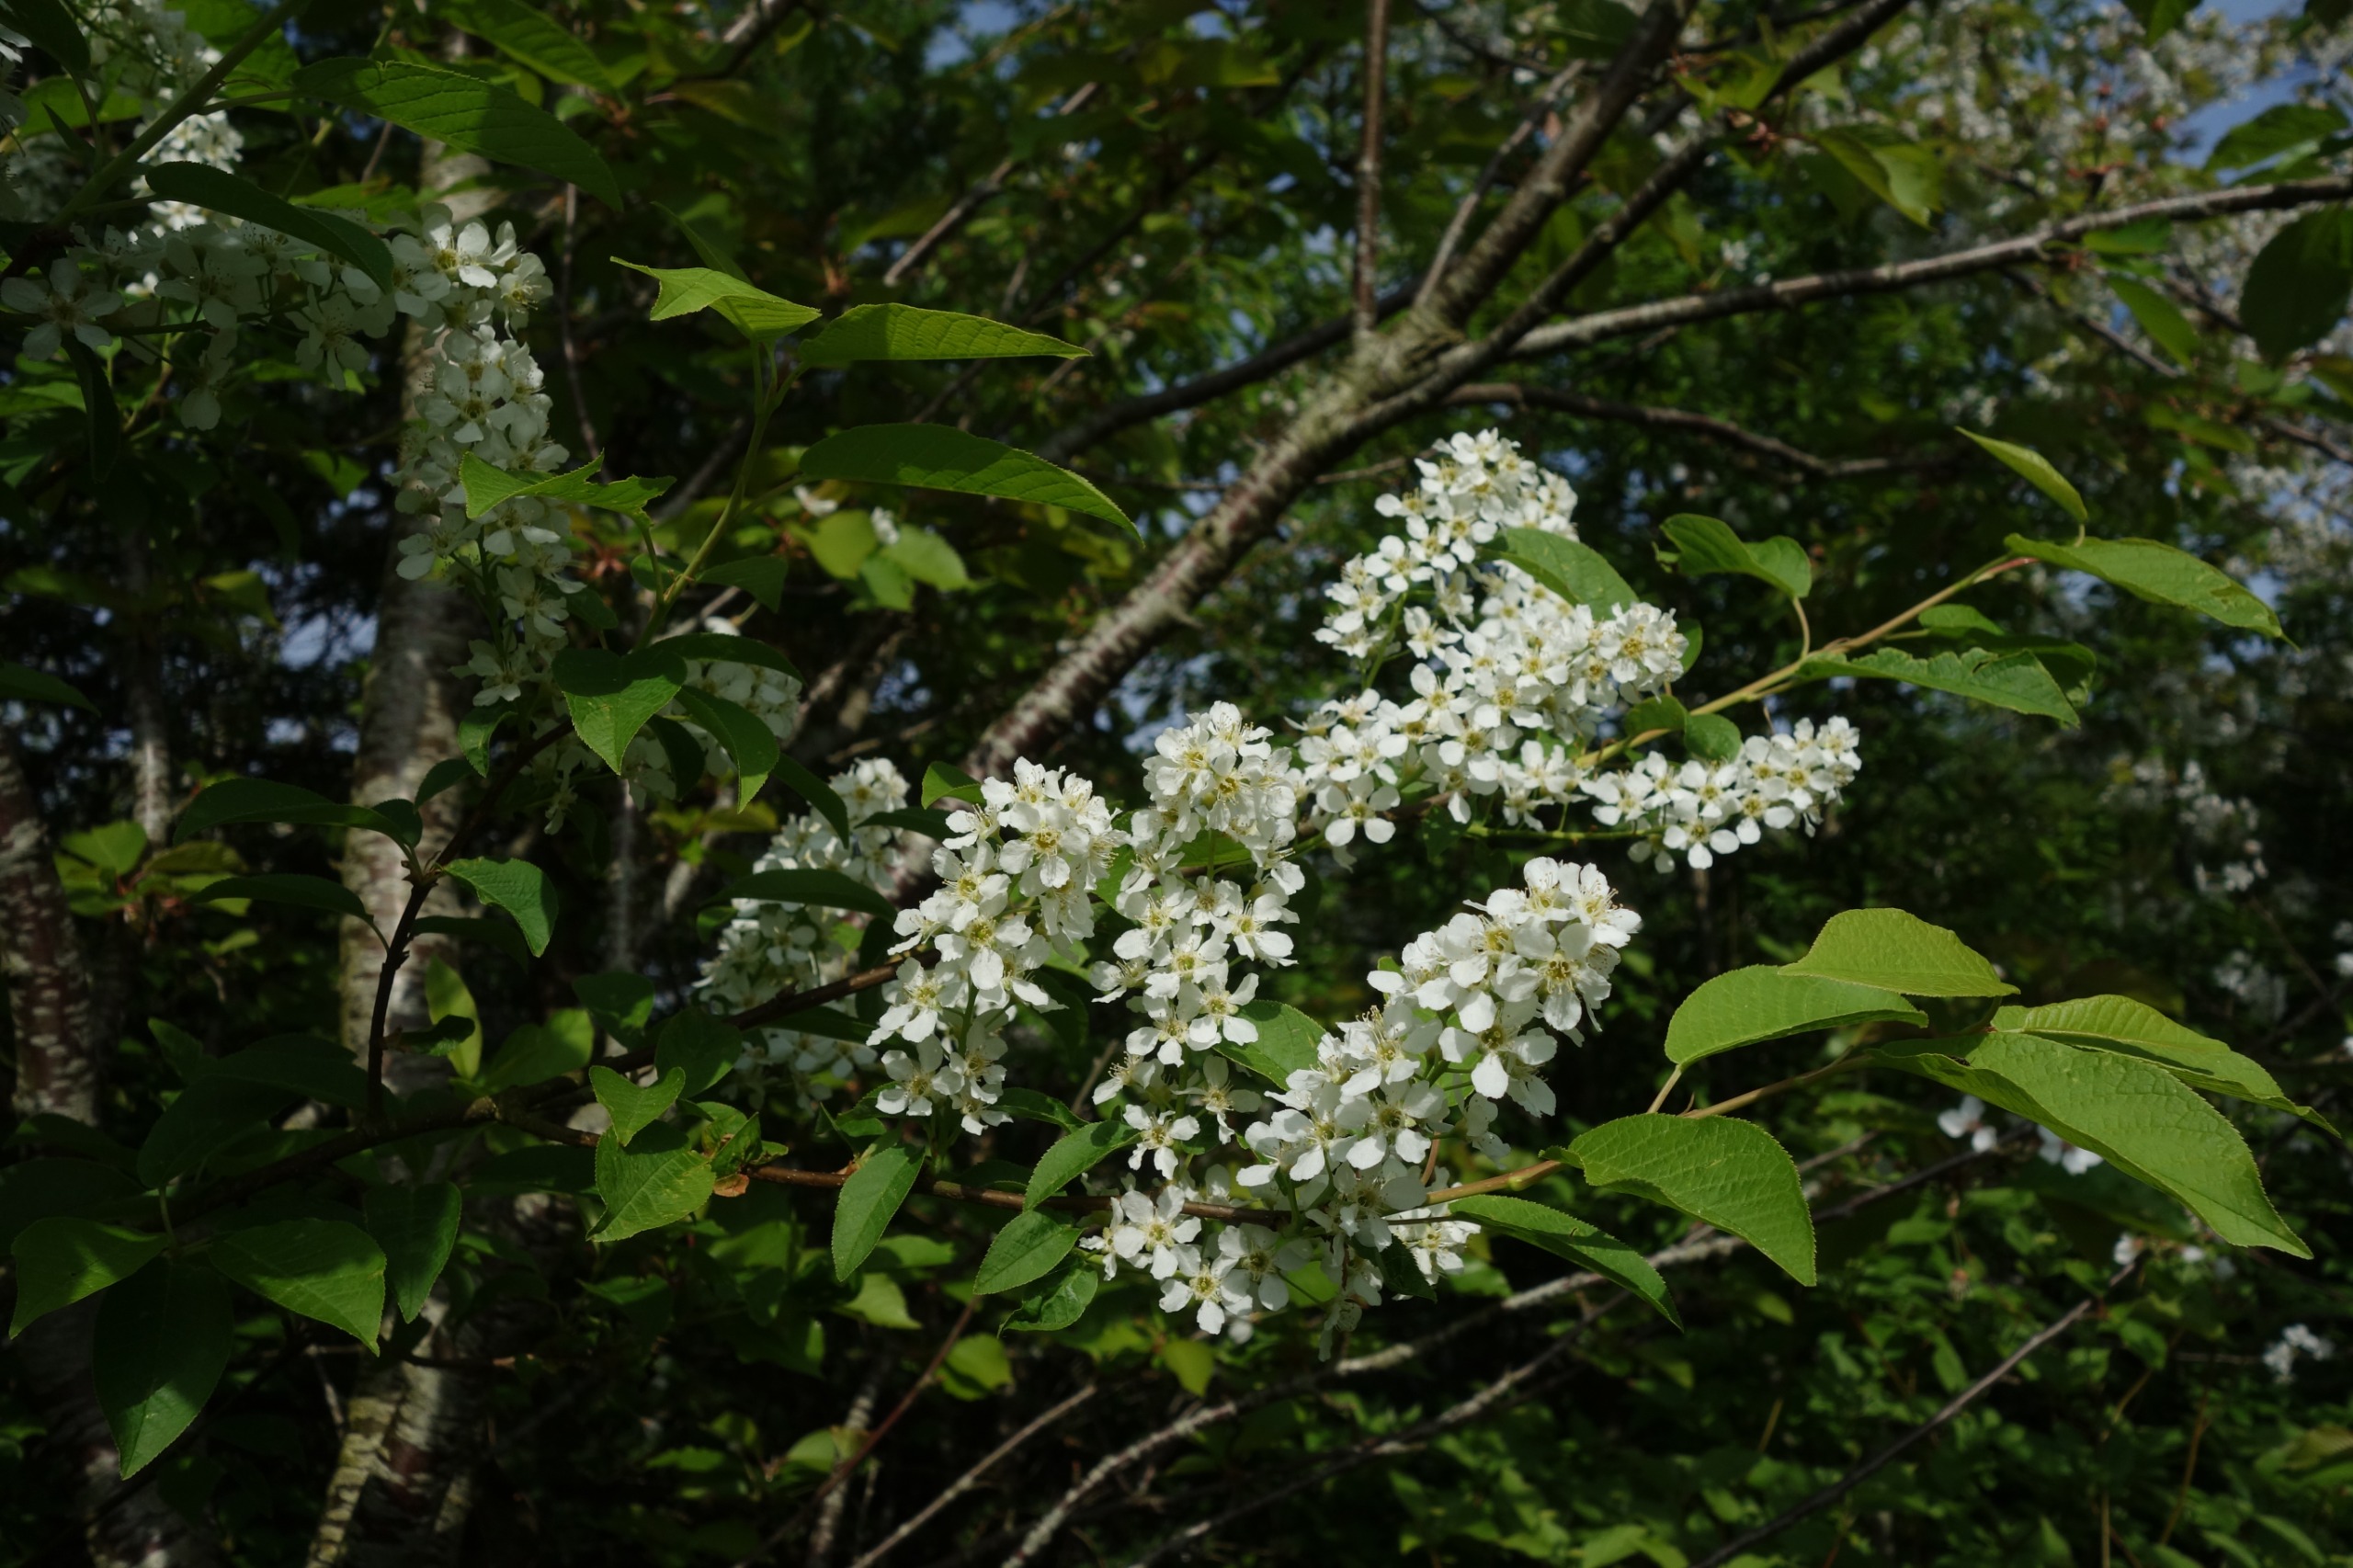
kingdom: Plantae
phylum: Tracheophyta
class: Magnoliopsida
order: Rosales
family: Rosaceae
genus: Prunus
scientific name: Prunus padus
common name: Almindelig hæg
